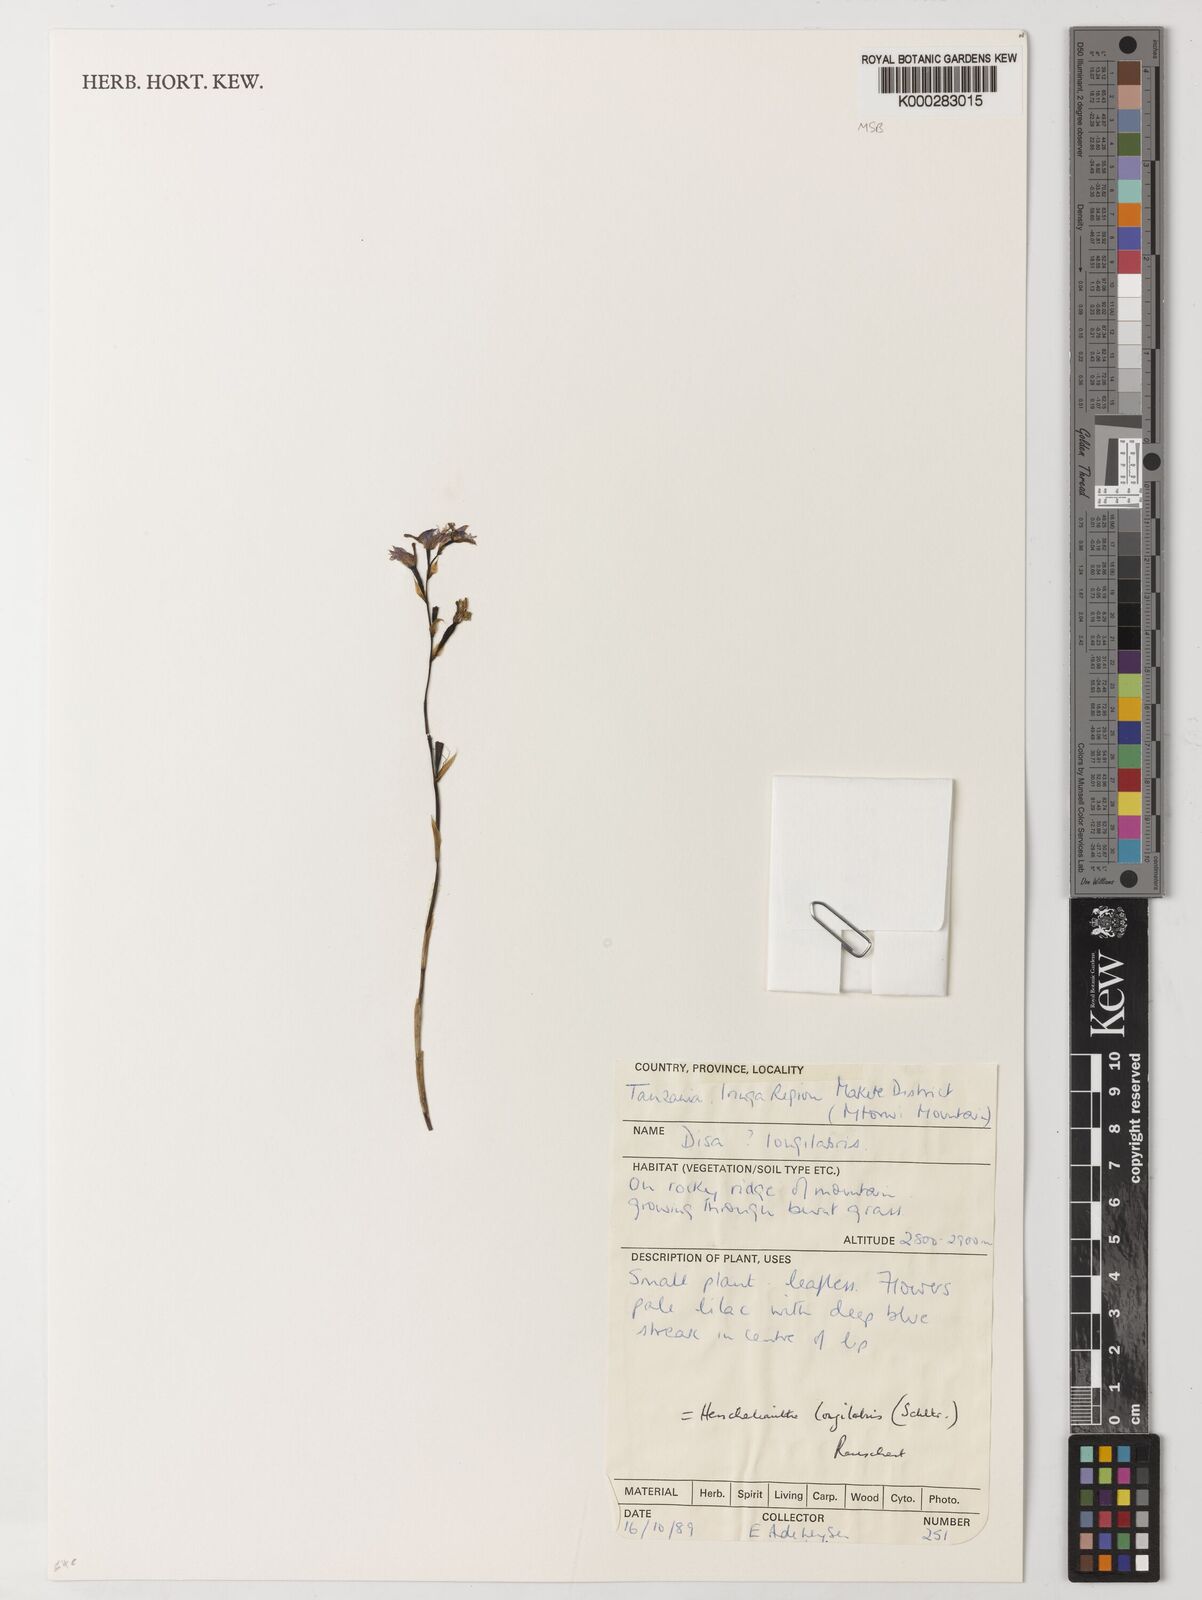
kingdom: Plantae
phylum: Tracheophyta
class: Liliopsida
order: Asparagales
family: Orchidaceae
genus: Disa
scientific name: Disa longilabris
